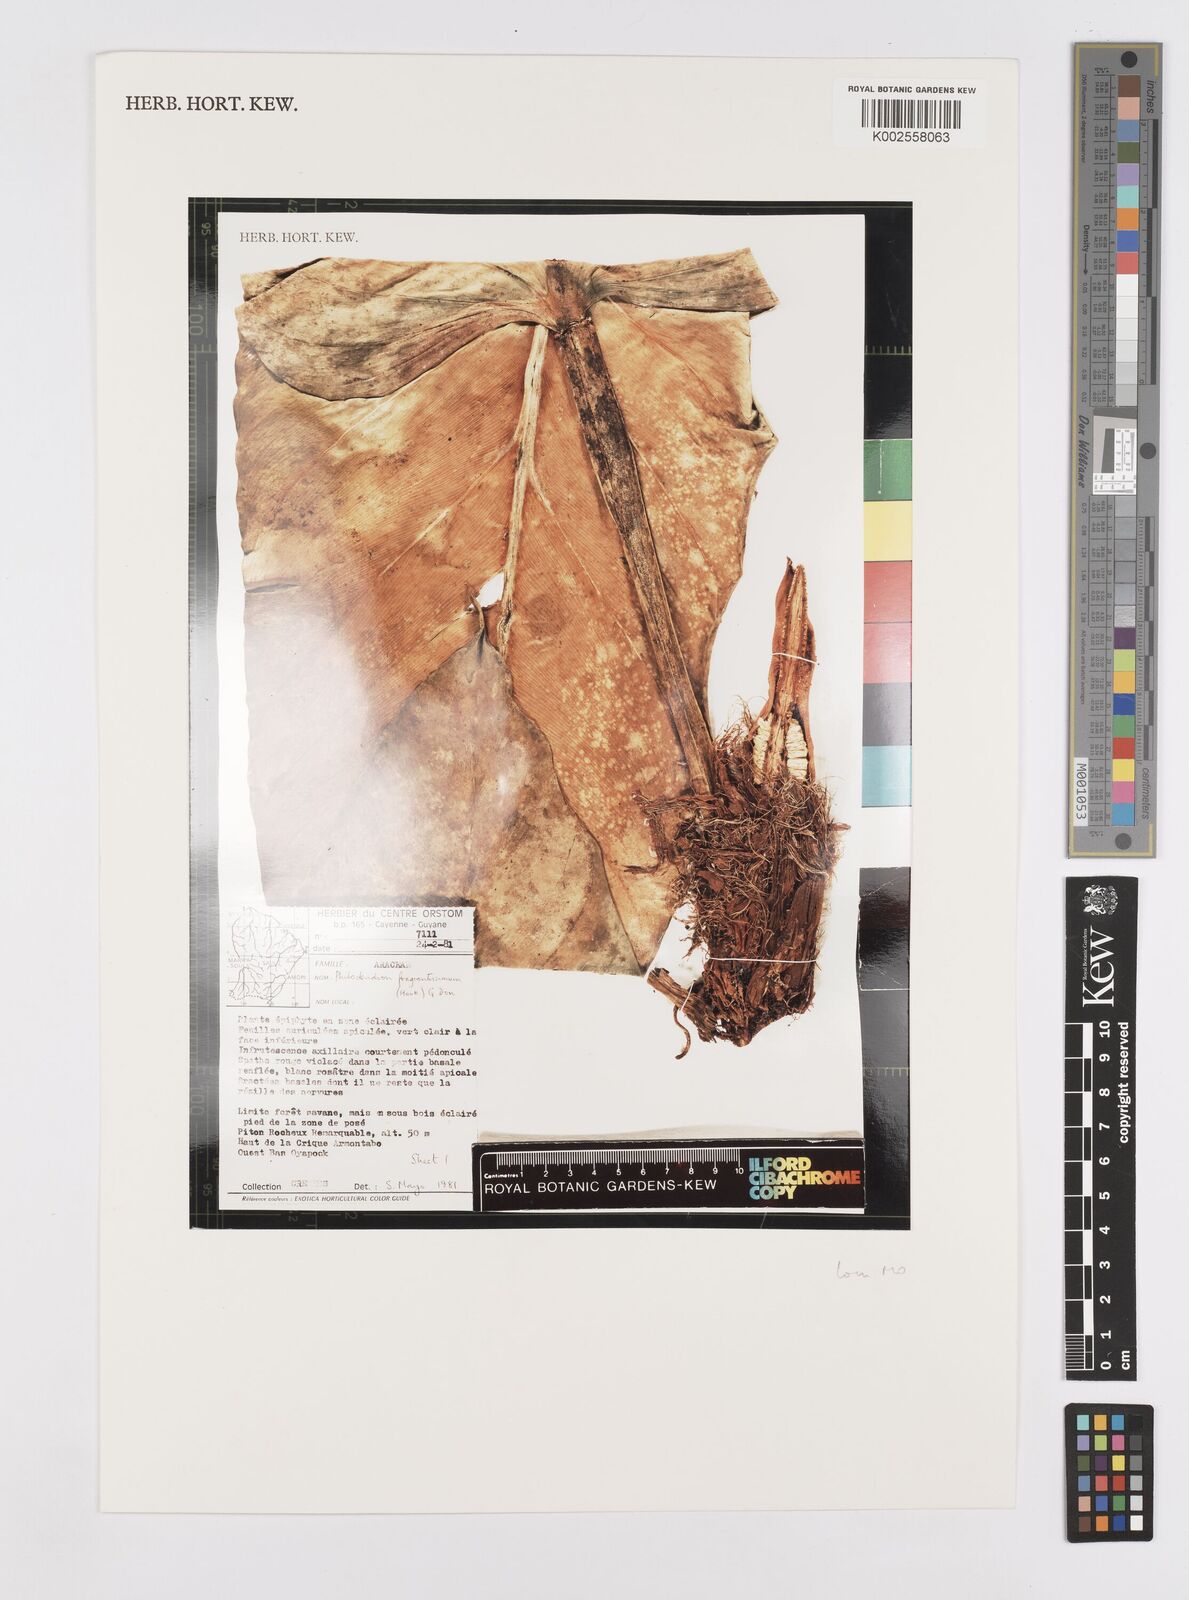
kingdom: Plantae
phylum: Tracheophyta
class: Liliopsida
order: Alismatales
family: Araceae
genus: Philodendron
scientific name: Philodendron fragrantissimum
